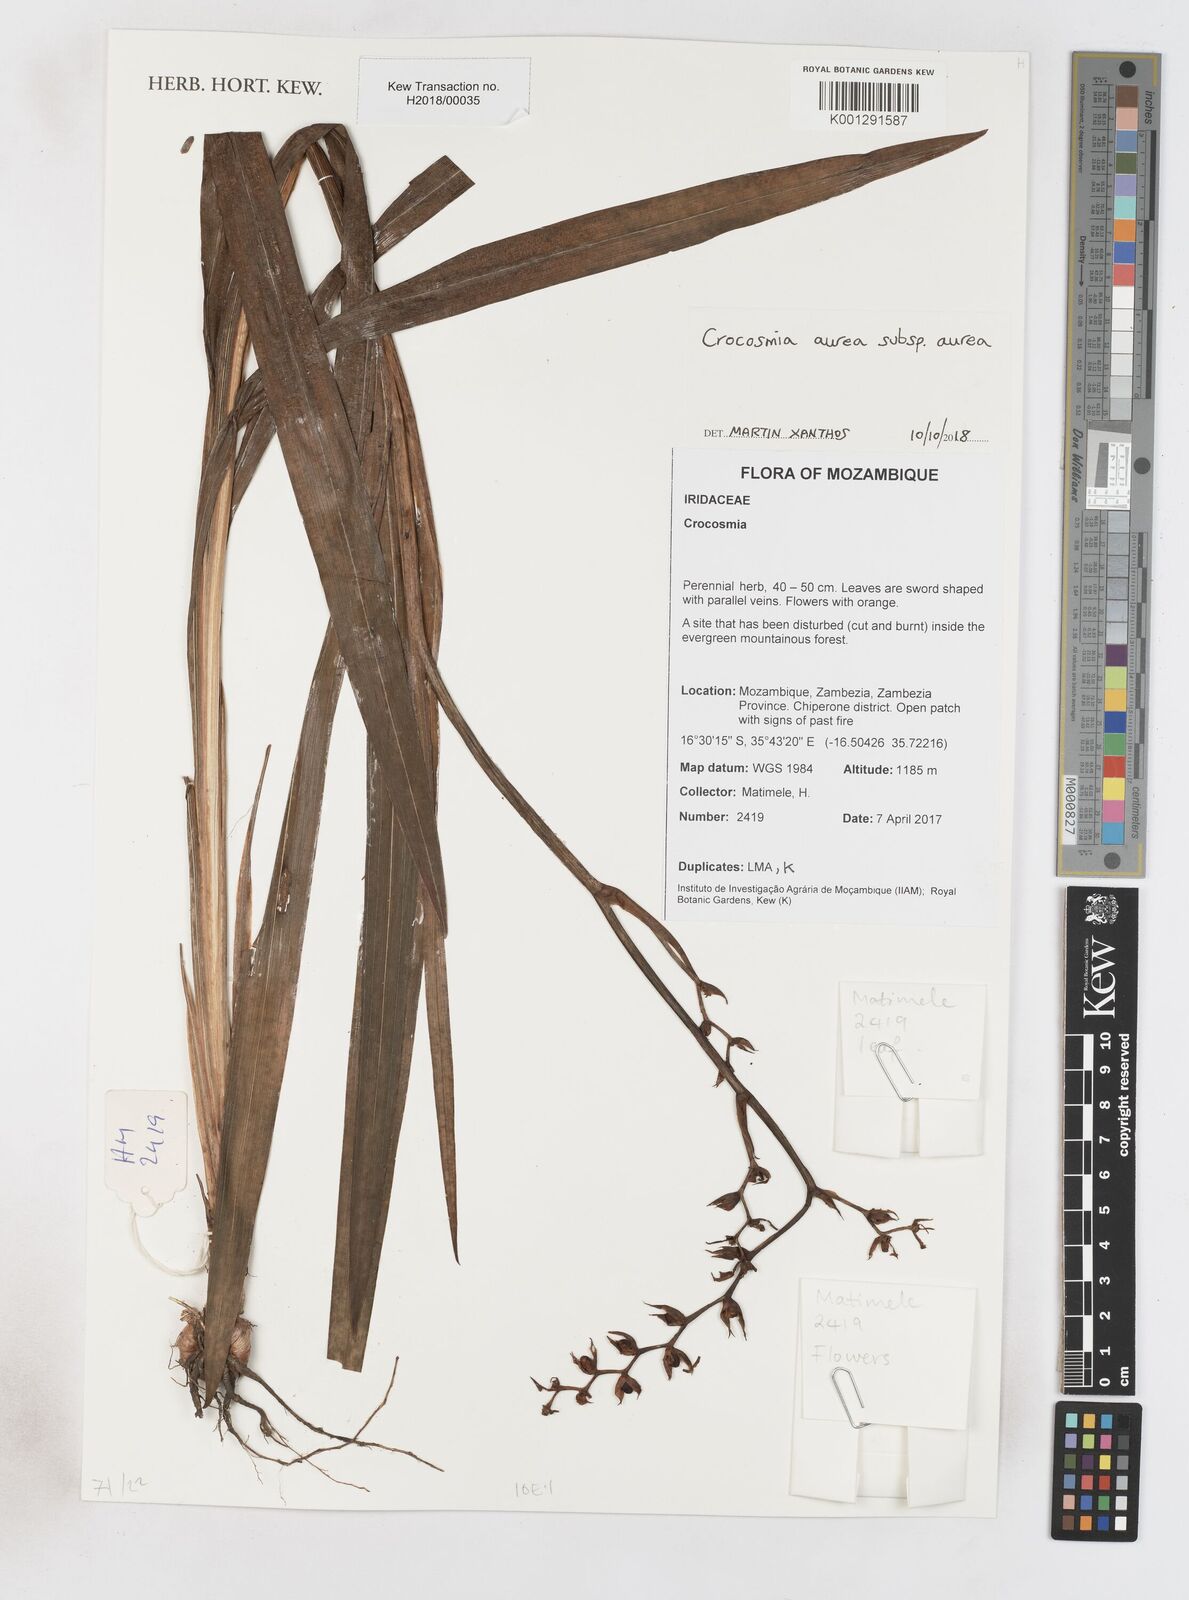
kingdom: Plantae
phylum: Tracheophyta
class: Liliopsida
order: Asparagales
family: Iridaceae
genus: Crocosmia
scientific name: Crocosmia aurea
